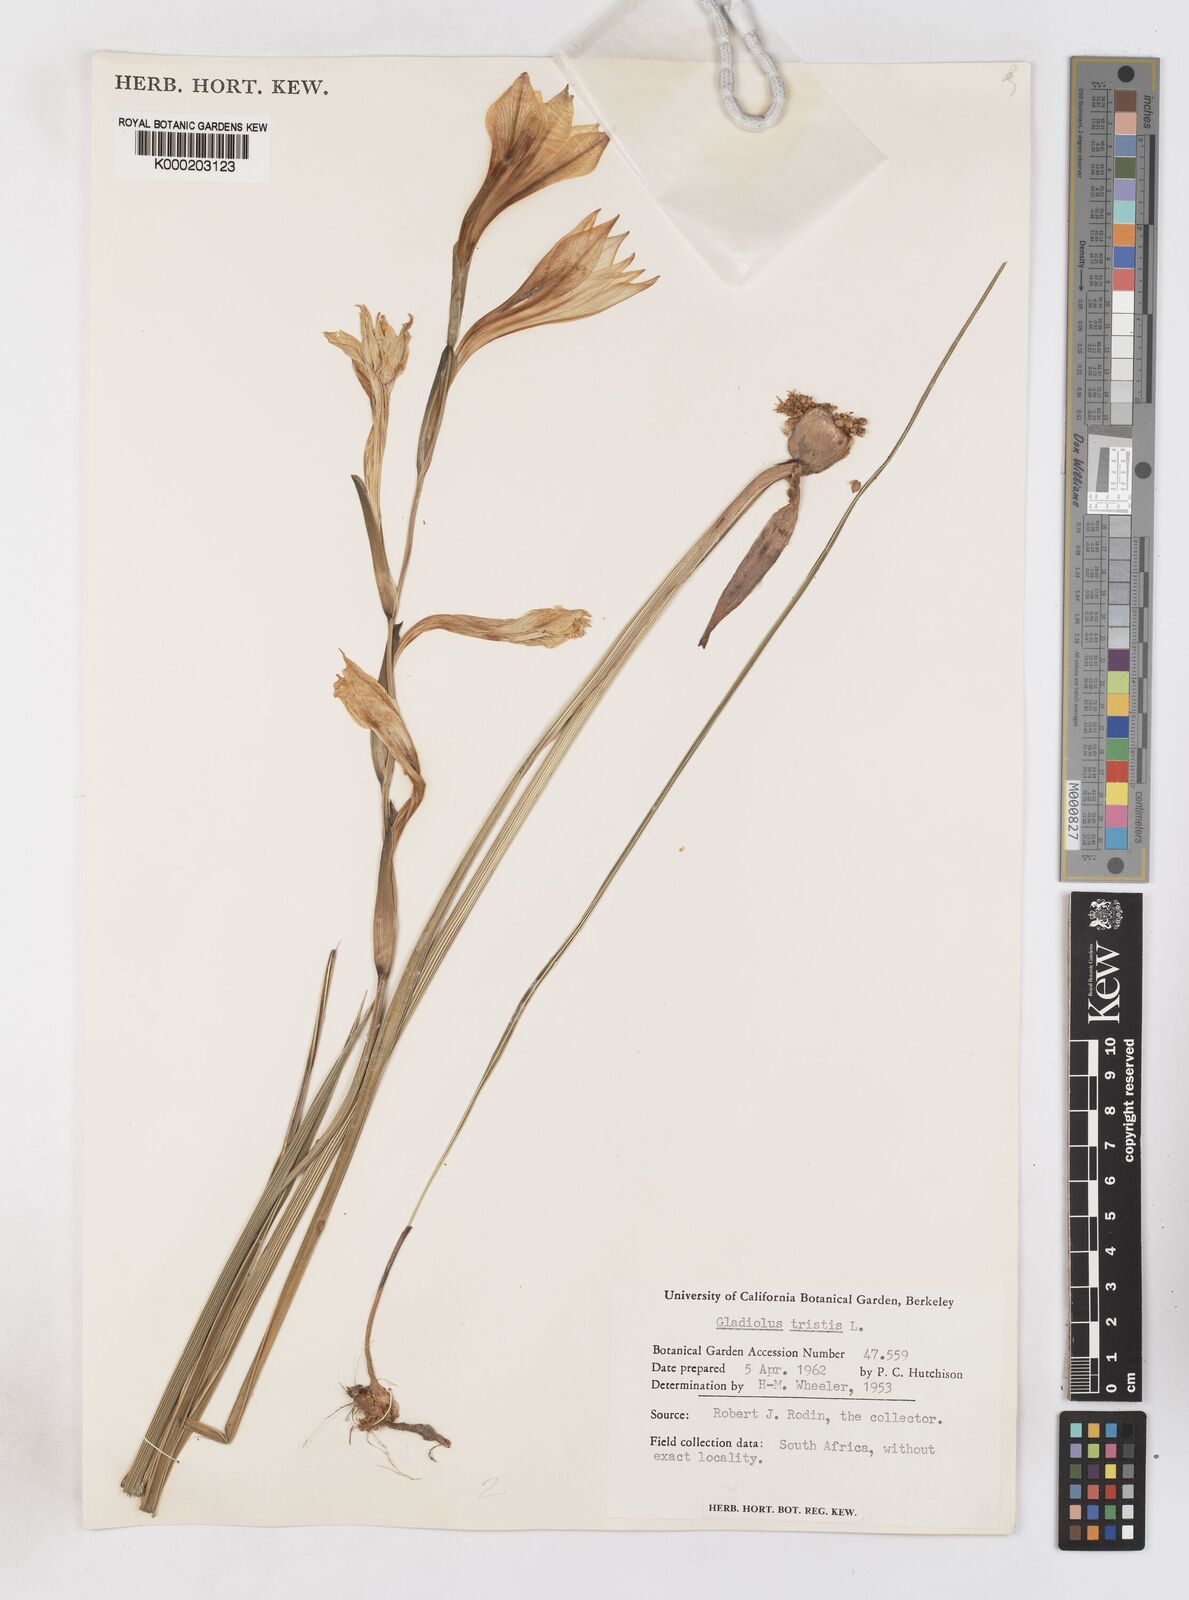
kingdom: Plantae
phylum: Tracheophyta
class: Liliopsida
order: Asparagales
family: Iridaceae
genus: Gladiolus
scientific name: Gladiolus tristis
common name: Ever-flowering gladiolus
